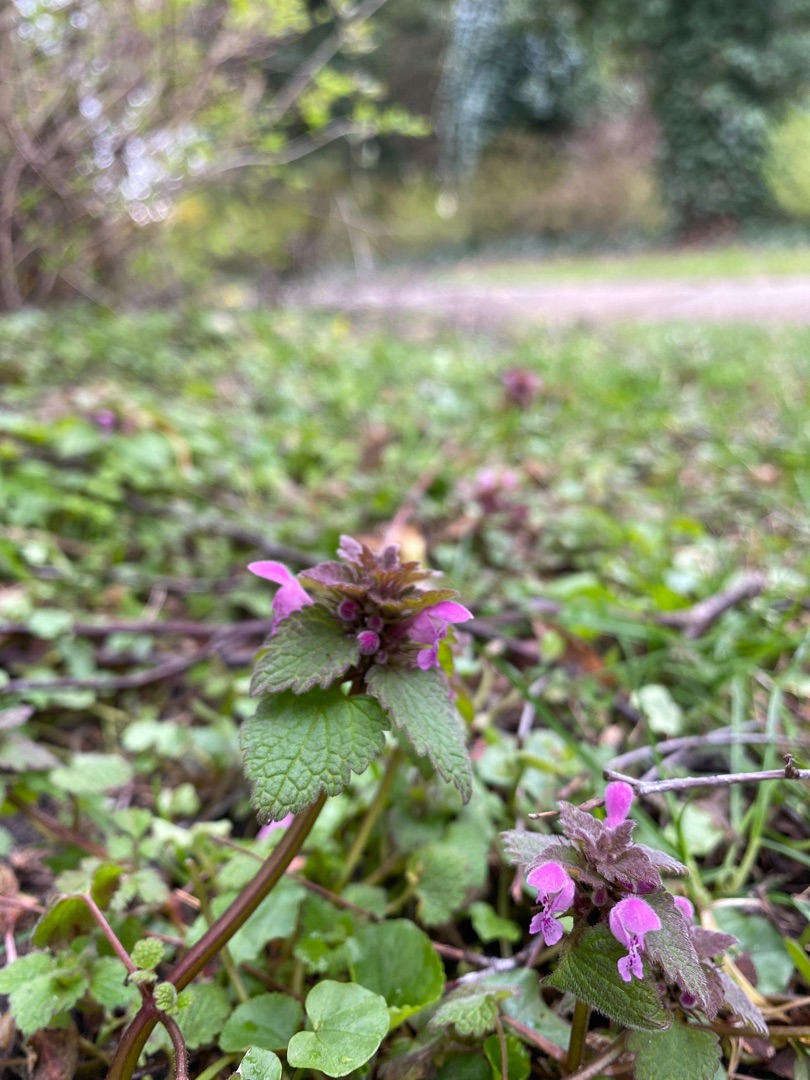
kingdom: Plantae
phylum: Tracheophyta
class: Magnoliopsida
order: Lamiales
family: Lamiaceae
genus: Lamium
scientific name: Lamium purpureum
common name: Rød tvetand
